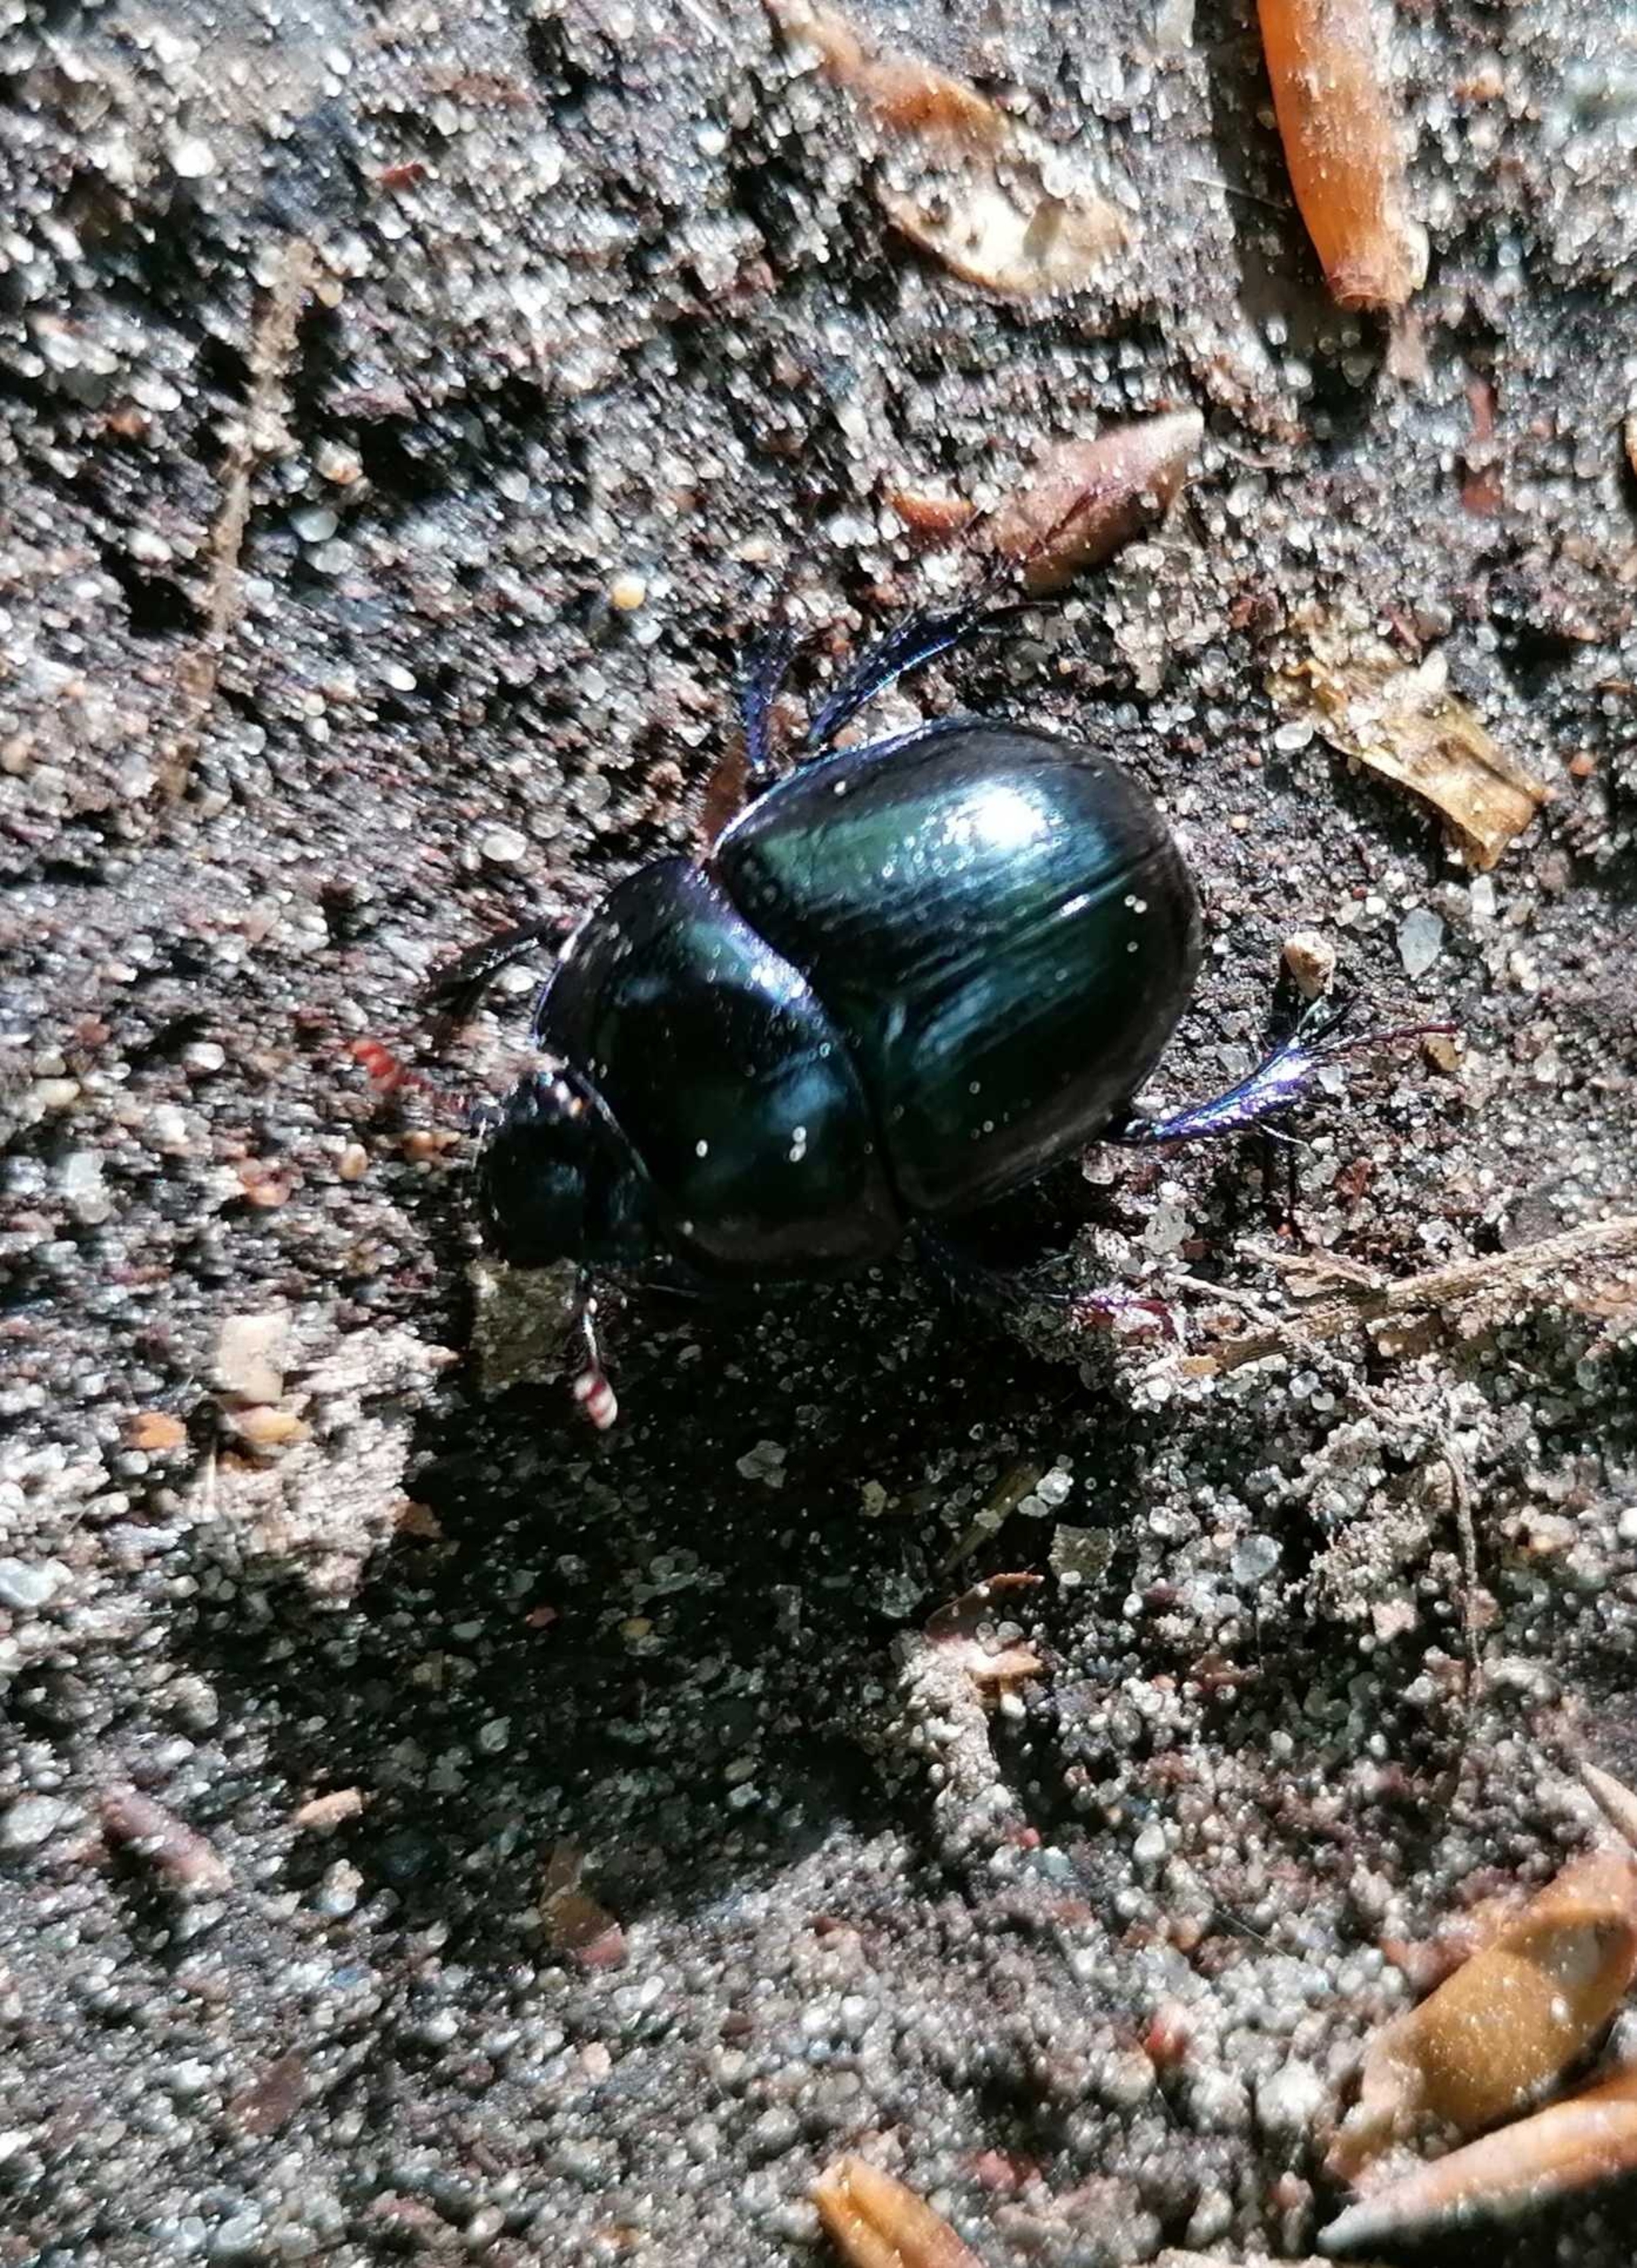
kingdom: Animalia
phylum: Arthropoda
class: Insecta
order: Coleoptera
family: Geotrupidae
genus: Anoplotrupes
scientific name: Anoplotrupes stercorosus
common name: Skovskarnbasse
